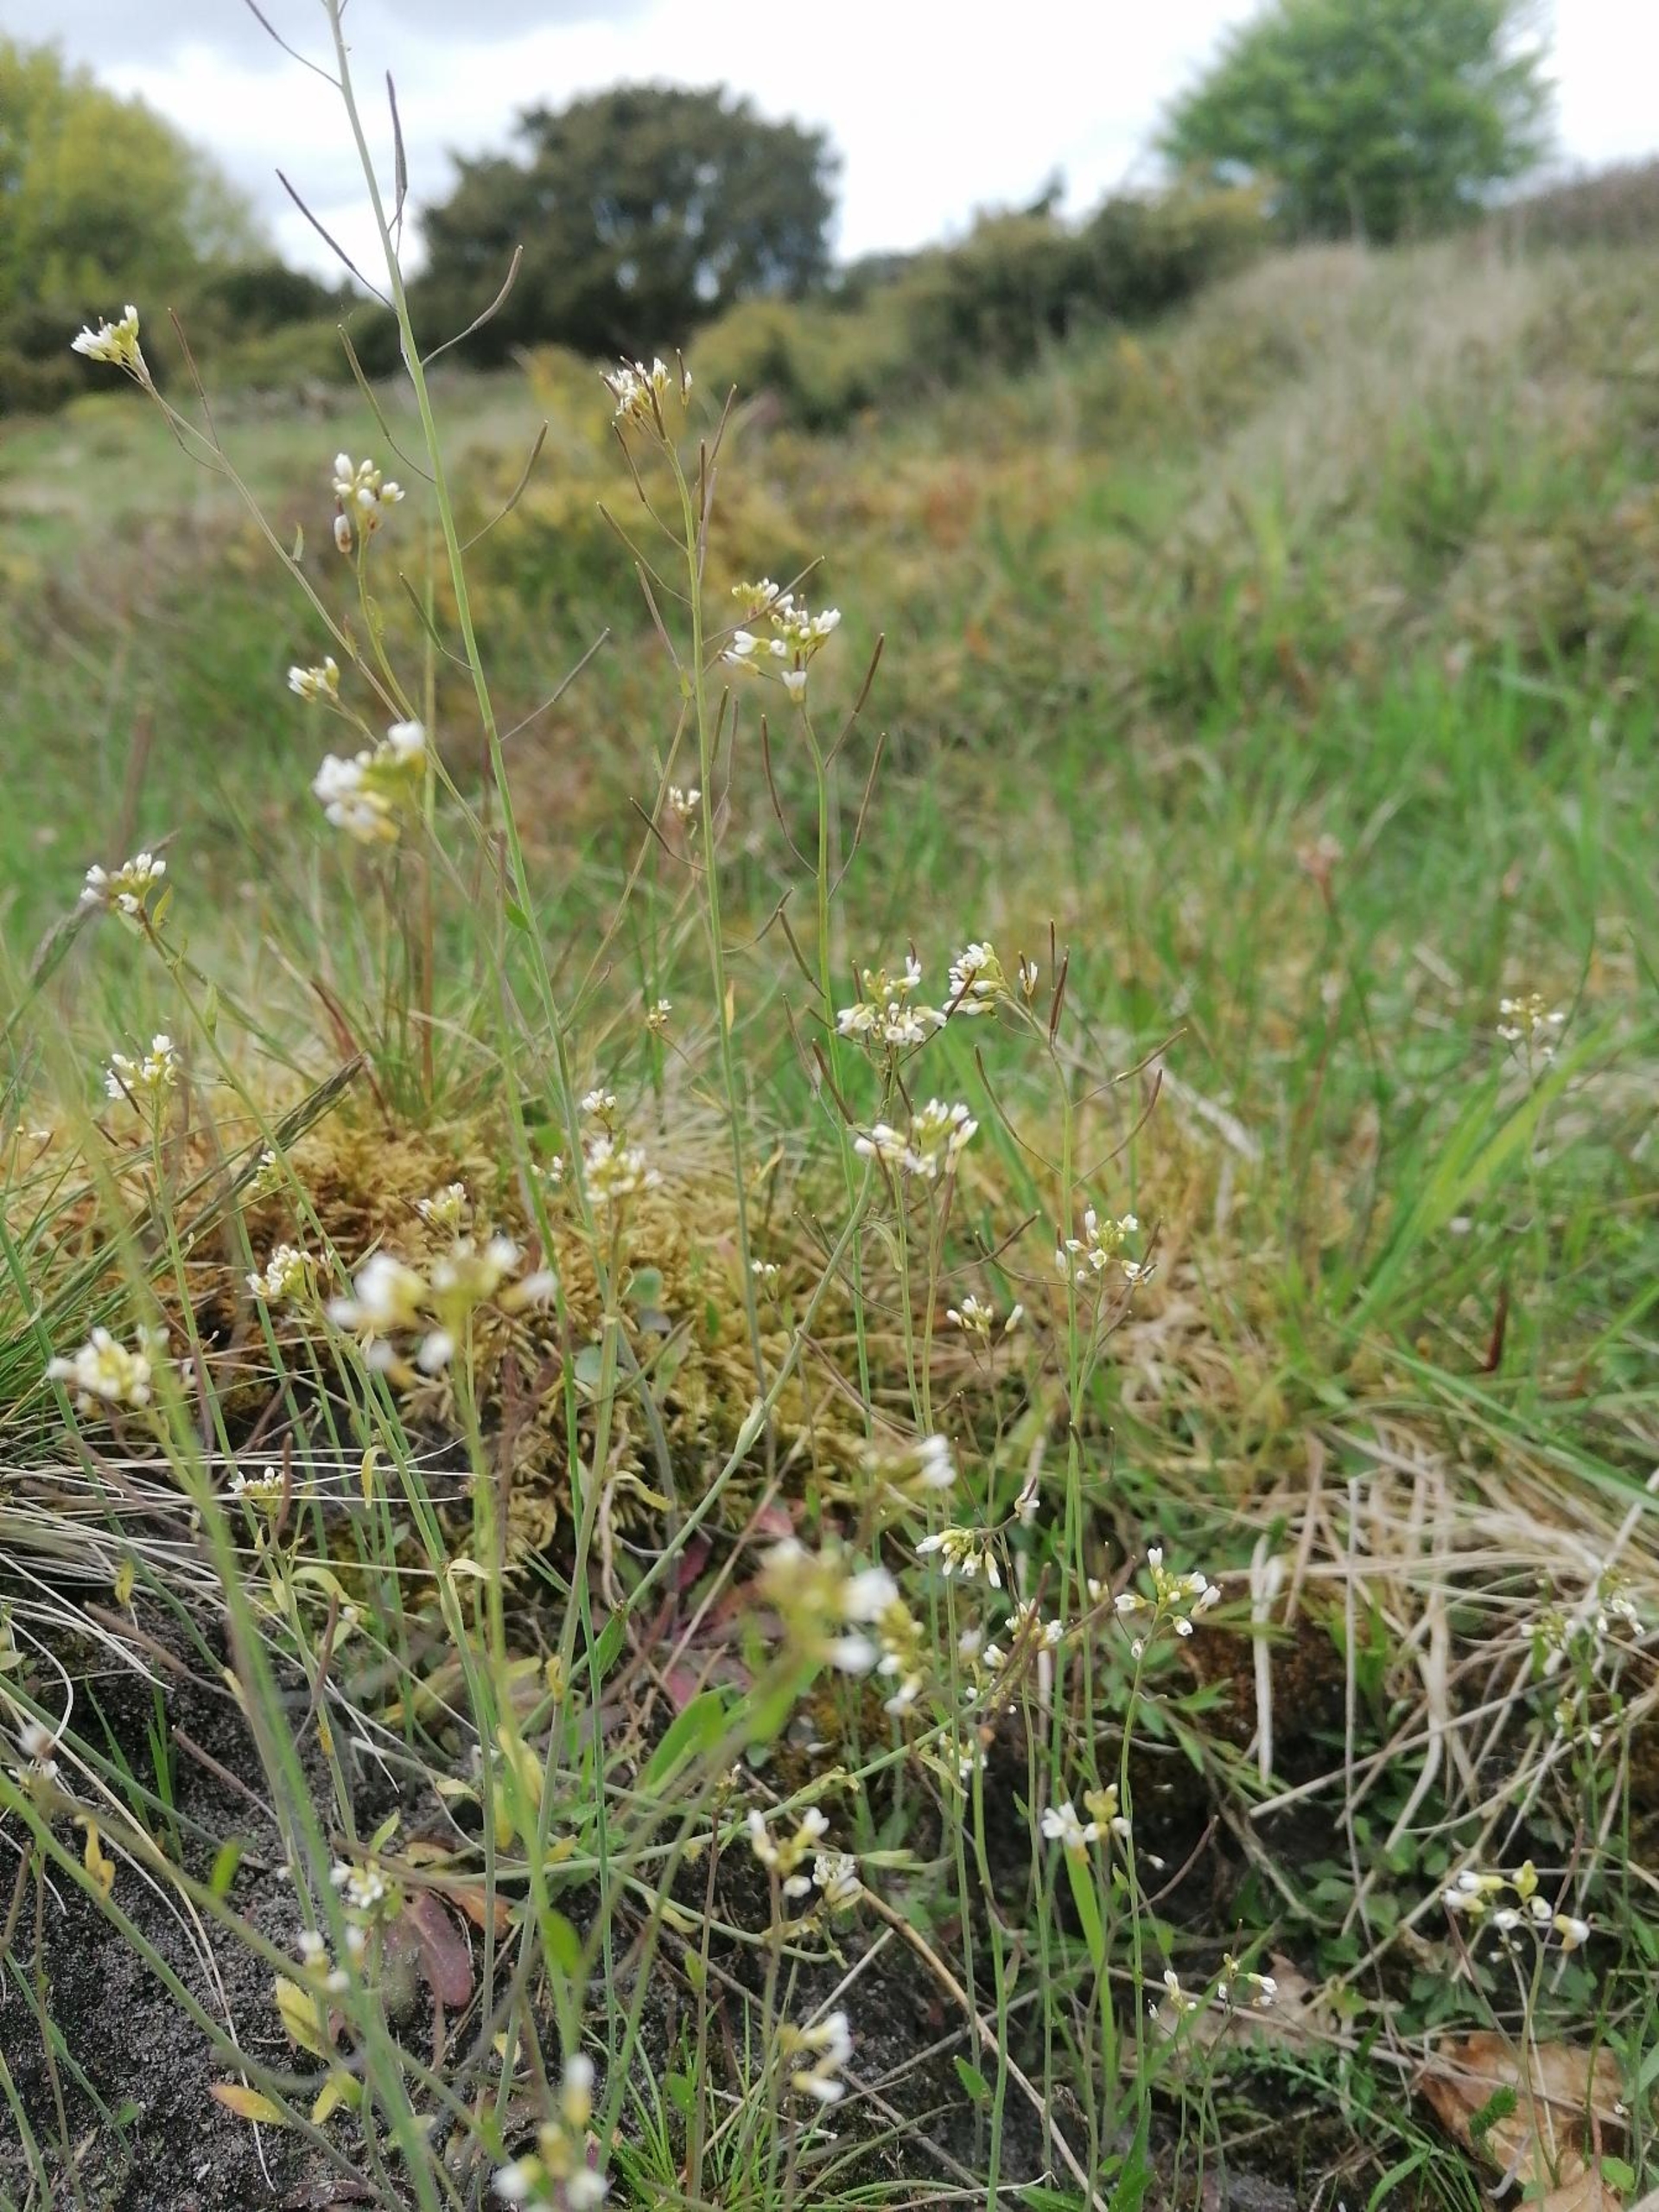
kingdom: Plantae
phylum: Tracheophyta
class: Magnoliopsida
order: Brassicales
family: Brassicaceae
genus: Arabidopsis
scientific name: Arabidopsis thaliana
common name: Almindelig gåsemad
